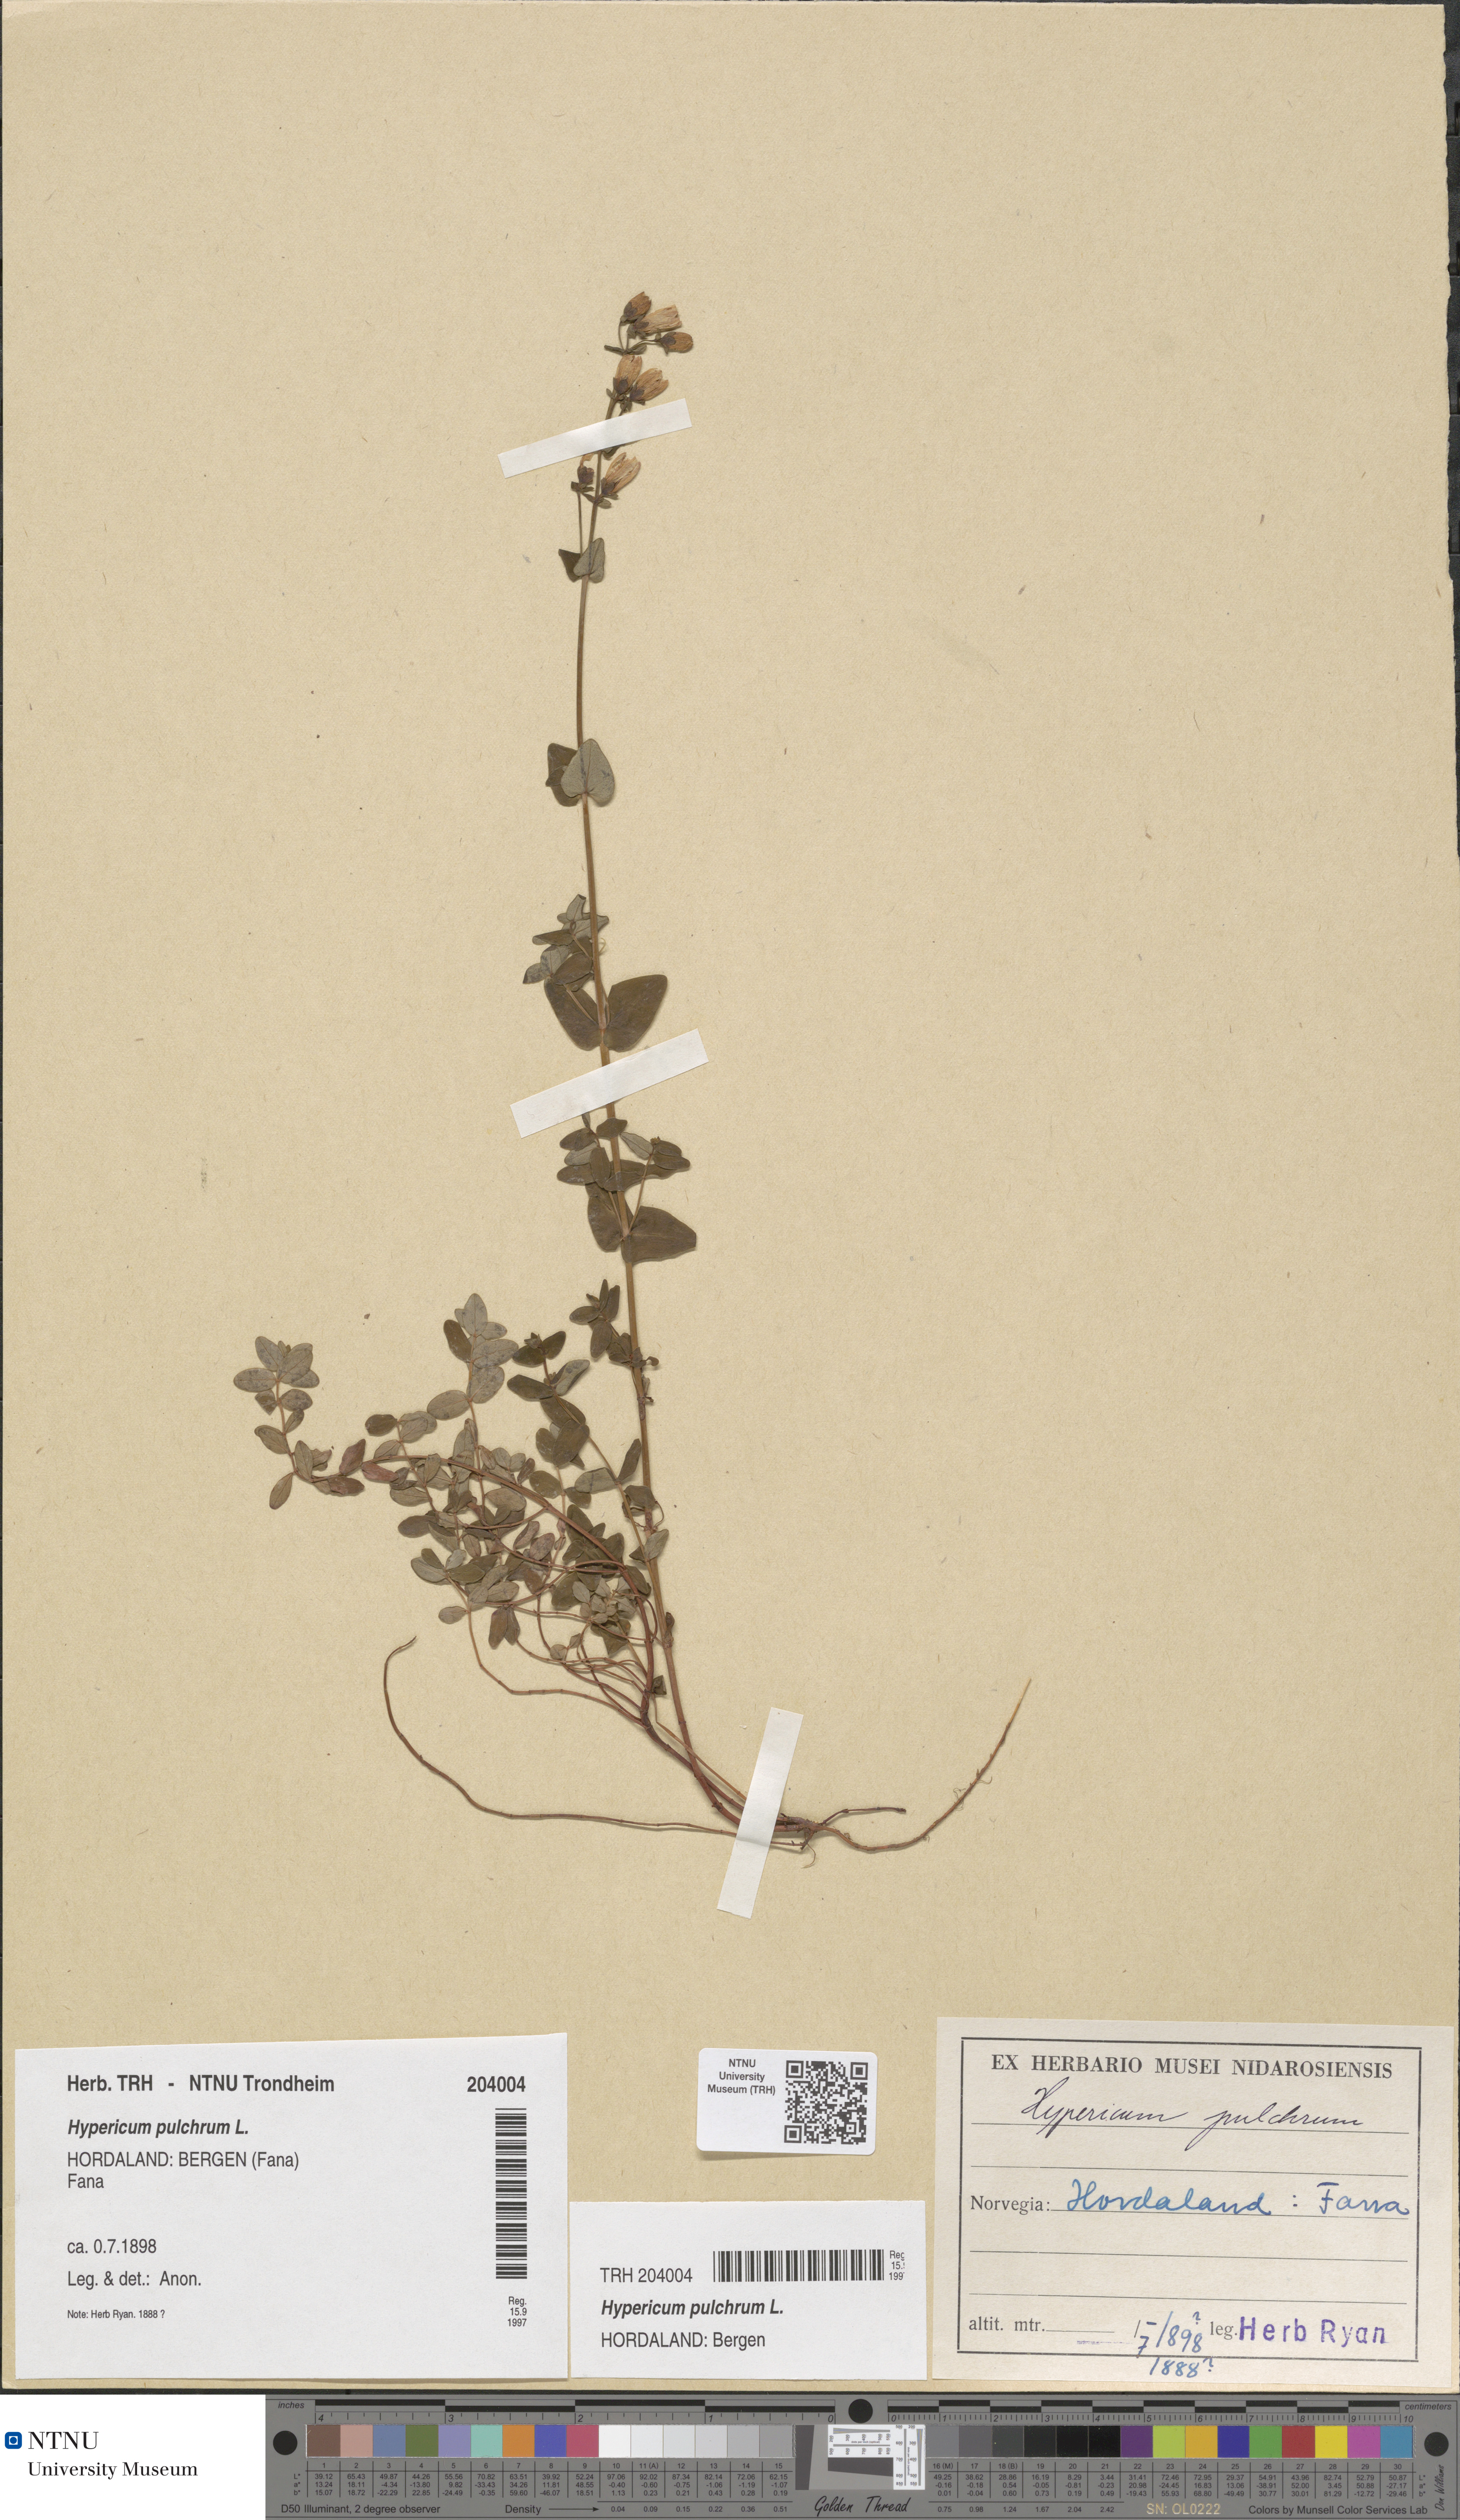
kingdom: Plantae
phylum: Tracheophyta
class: Magnoliopsida
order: Malpighiales
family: Hypericaceae
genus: Hypericum
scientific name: Hypericum pulchrum
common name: Slender st. john's-wort
